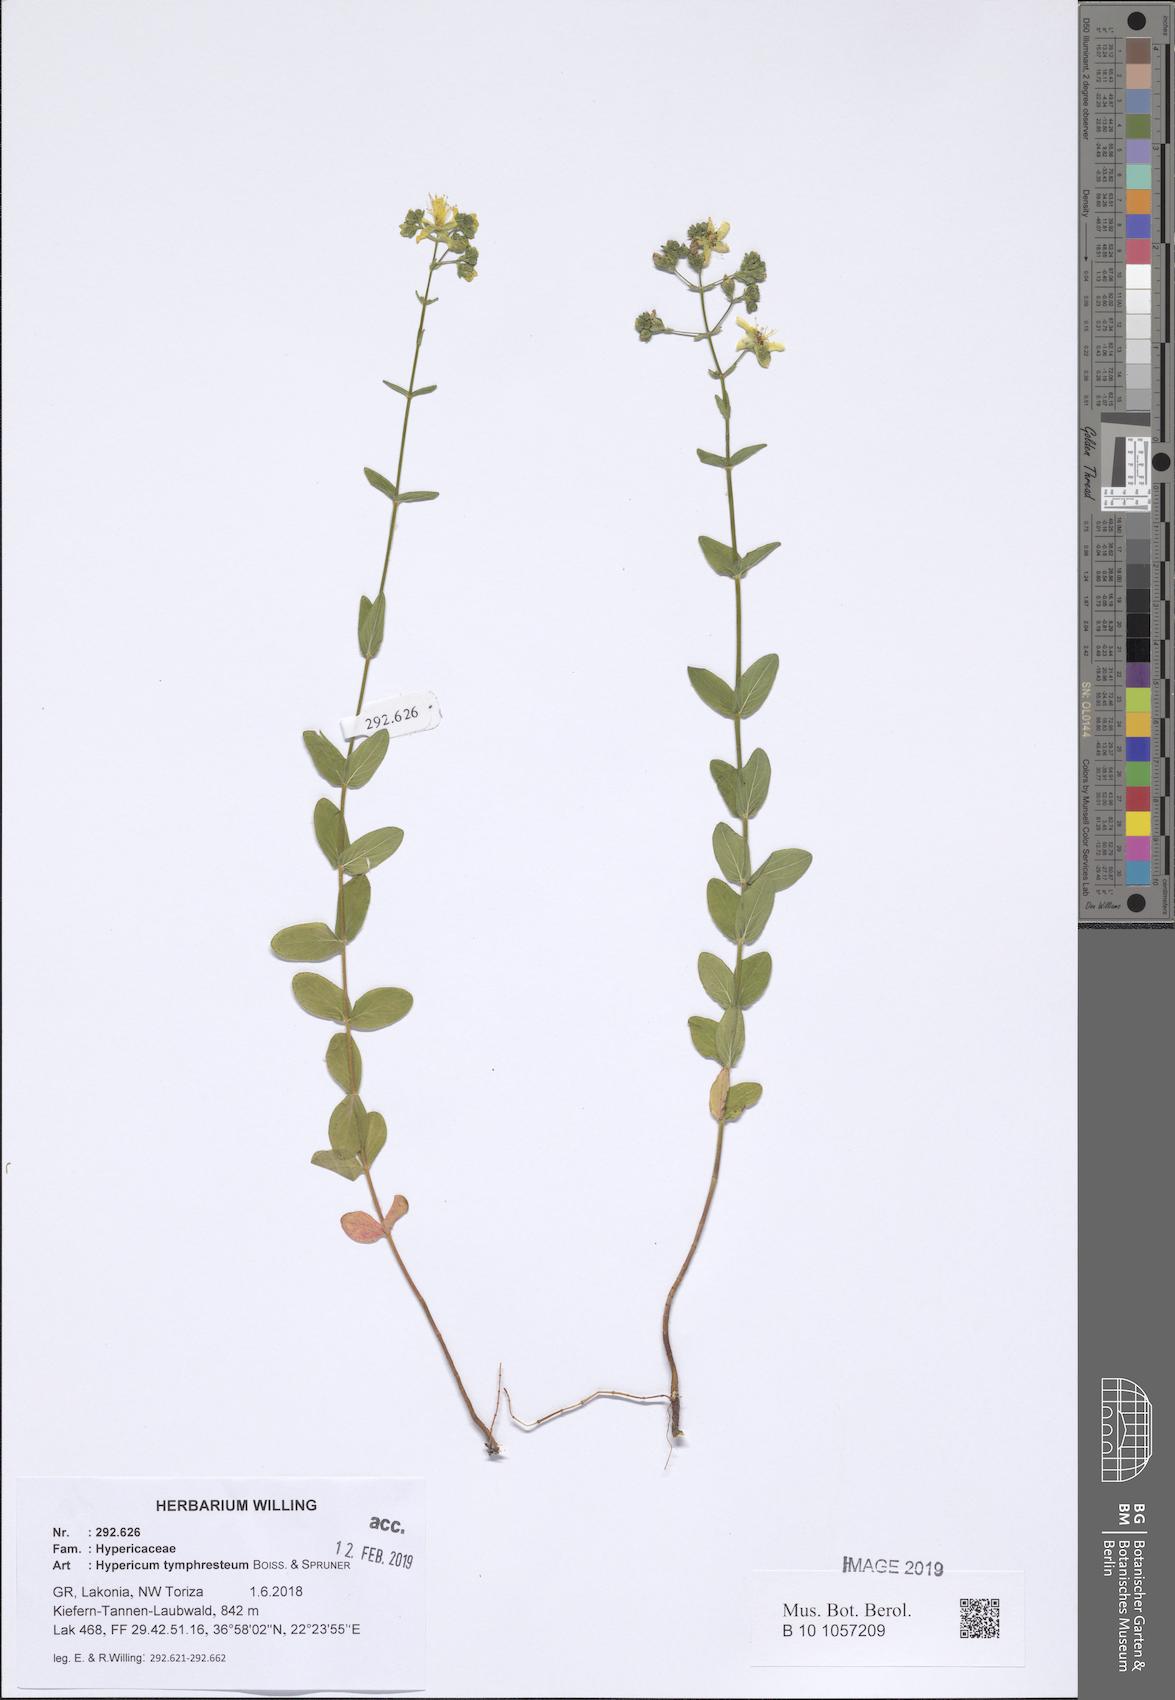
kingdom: Plantae
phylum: Tracheophyta
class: Magnoliopsida
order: Malpighiales
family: Hypericaceae
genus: Hypericum
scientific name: Hypericum atomarium
